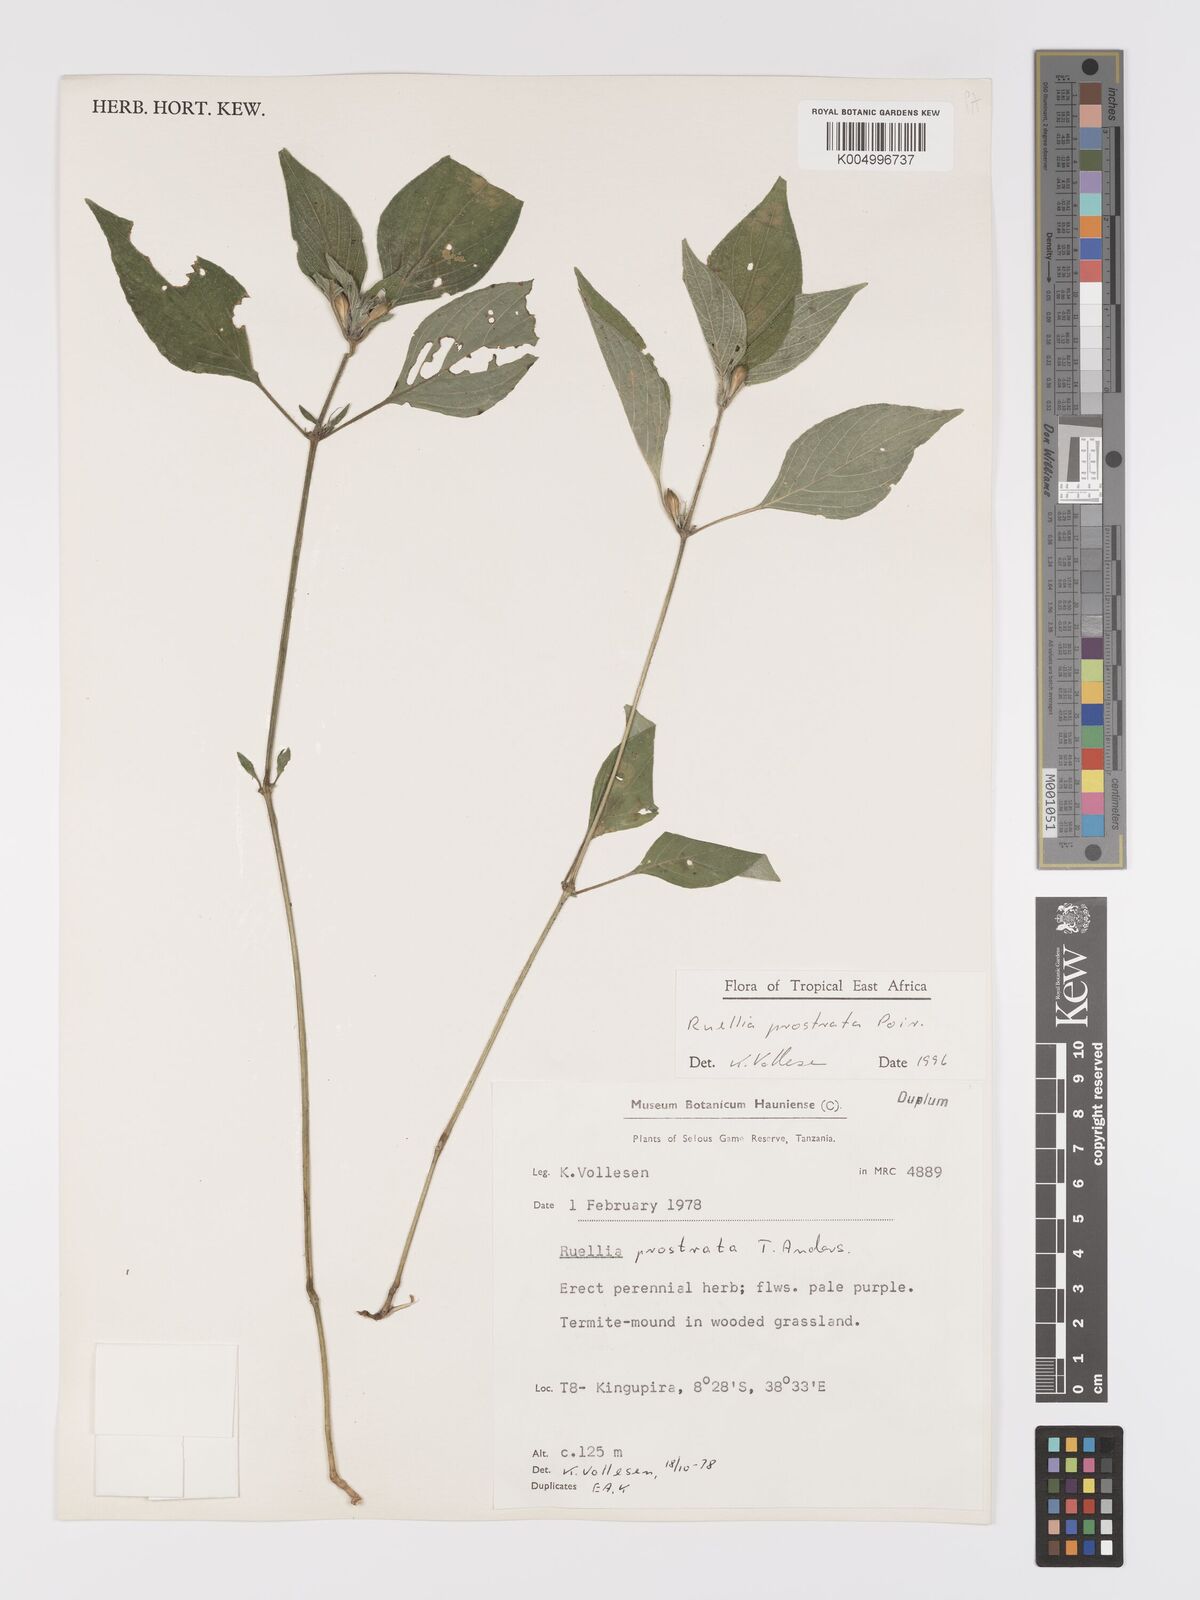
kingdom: Plantae
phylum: Tracheophyta
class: Magnoliopsida
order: Lamiales
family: Acanthaceae
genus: Ruellia
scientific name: Ruellia
